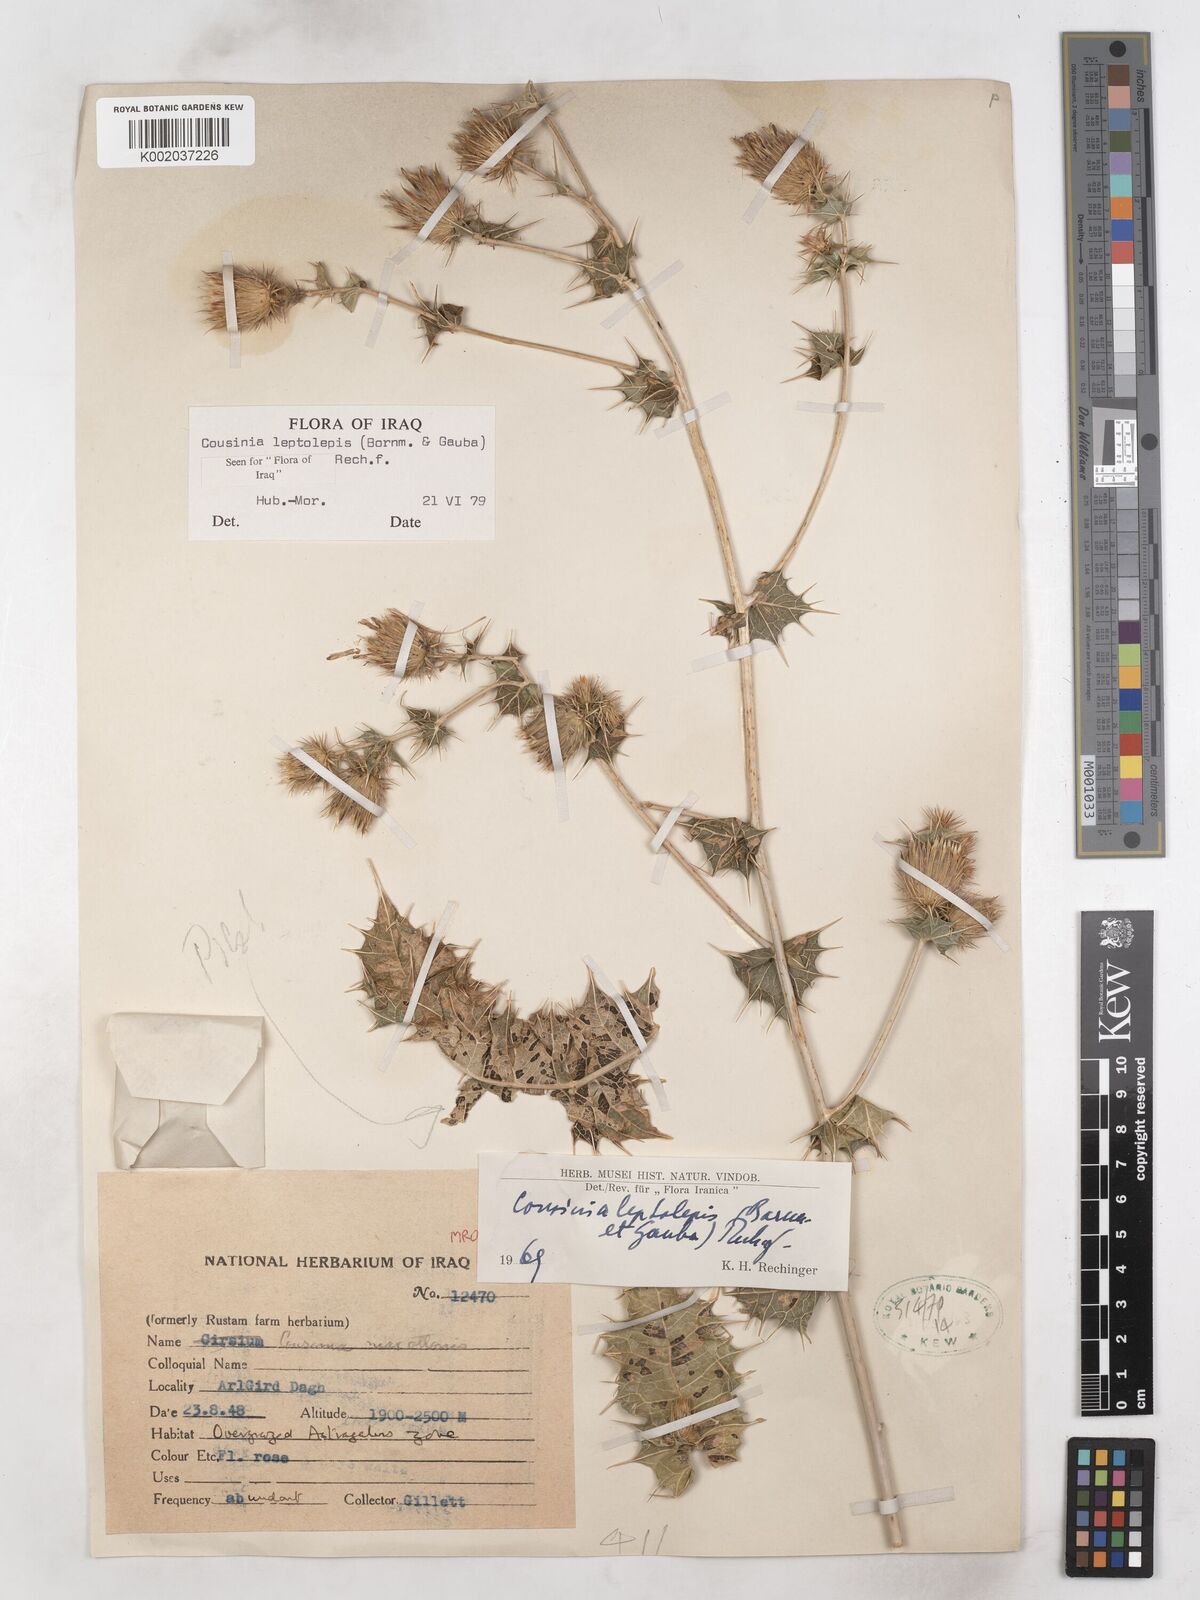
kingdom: Plantae
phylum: Tracheophyta
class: Magnoliopsida
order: Asterales
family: Asteraceae
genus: Cousinia
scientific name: Cousinia leptolepis
